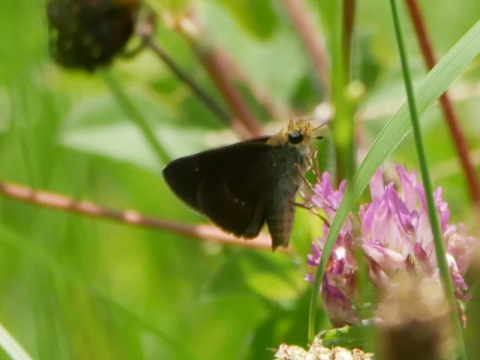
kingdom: Animalia
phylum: Arthropoda
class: Insecta
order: Lepidoptera
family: Hesperiidae
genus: Euphyes
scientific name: Euphyes vestris
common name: Dun Skipper
